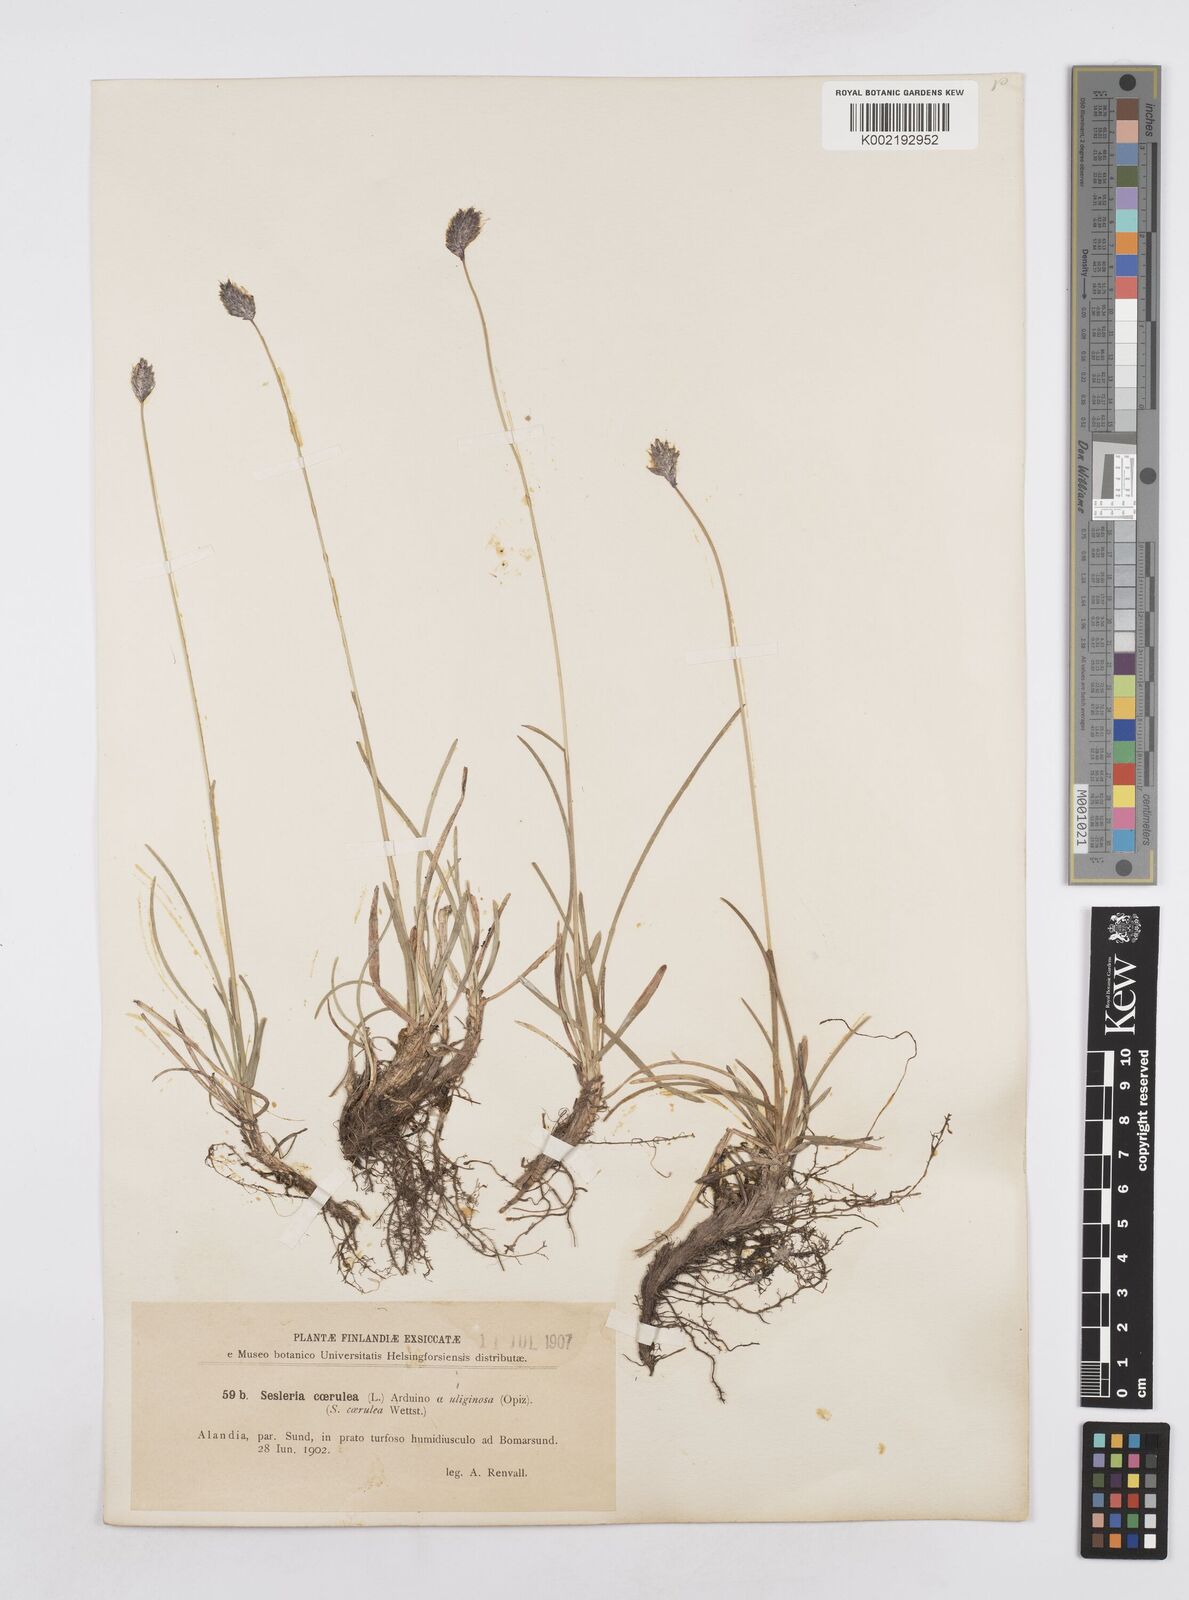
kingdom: Plantae
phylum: Tracheophyta
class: Liliopsida
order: Poales
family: Poaceae
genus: Sesleria
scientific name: Sesleria caerulea
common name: Blue moor-grass
